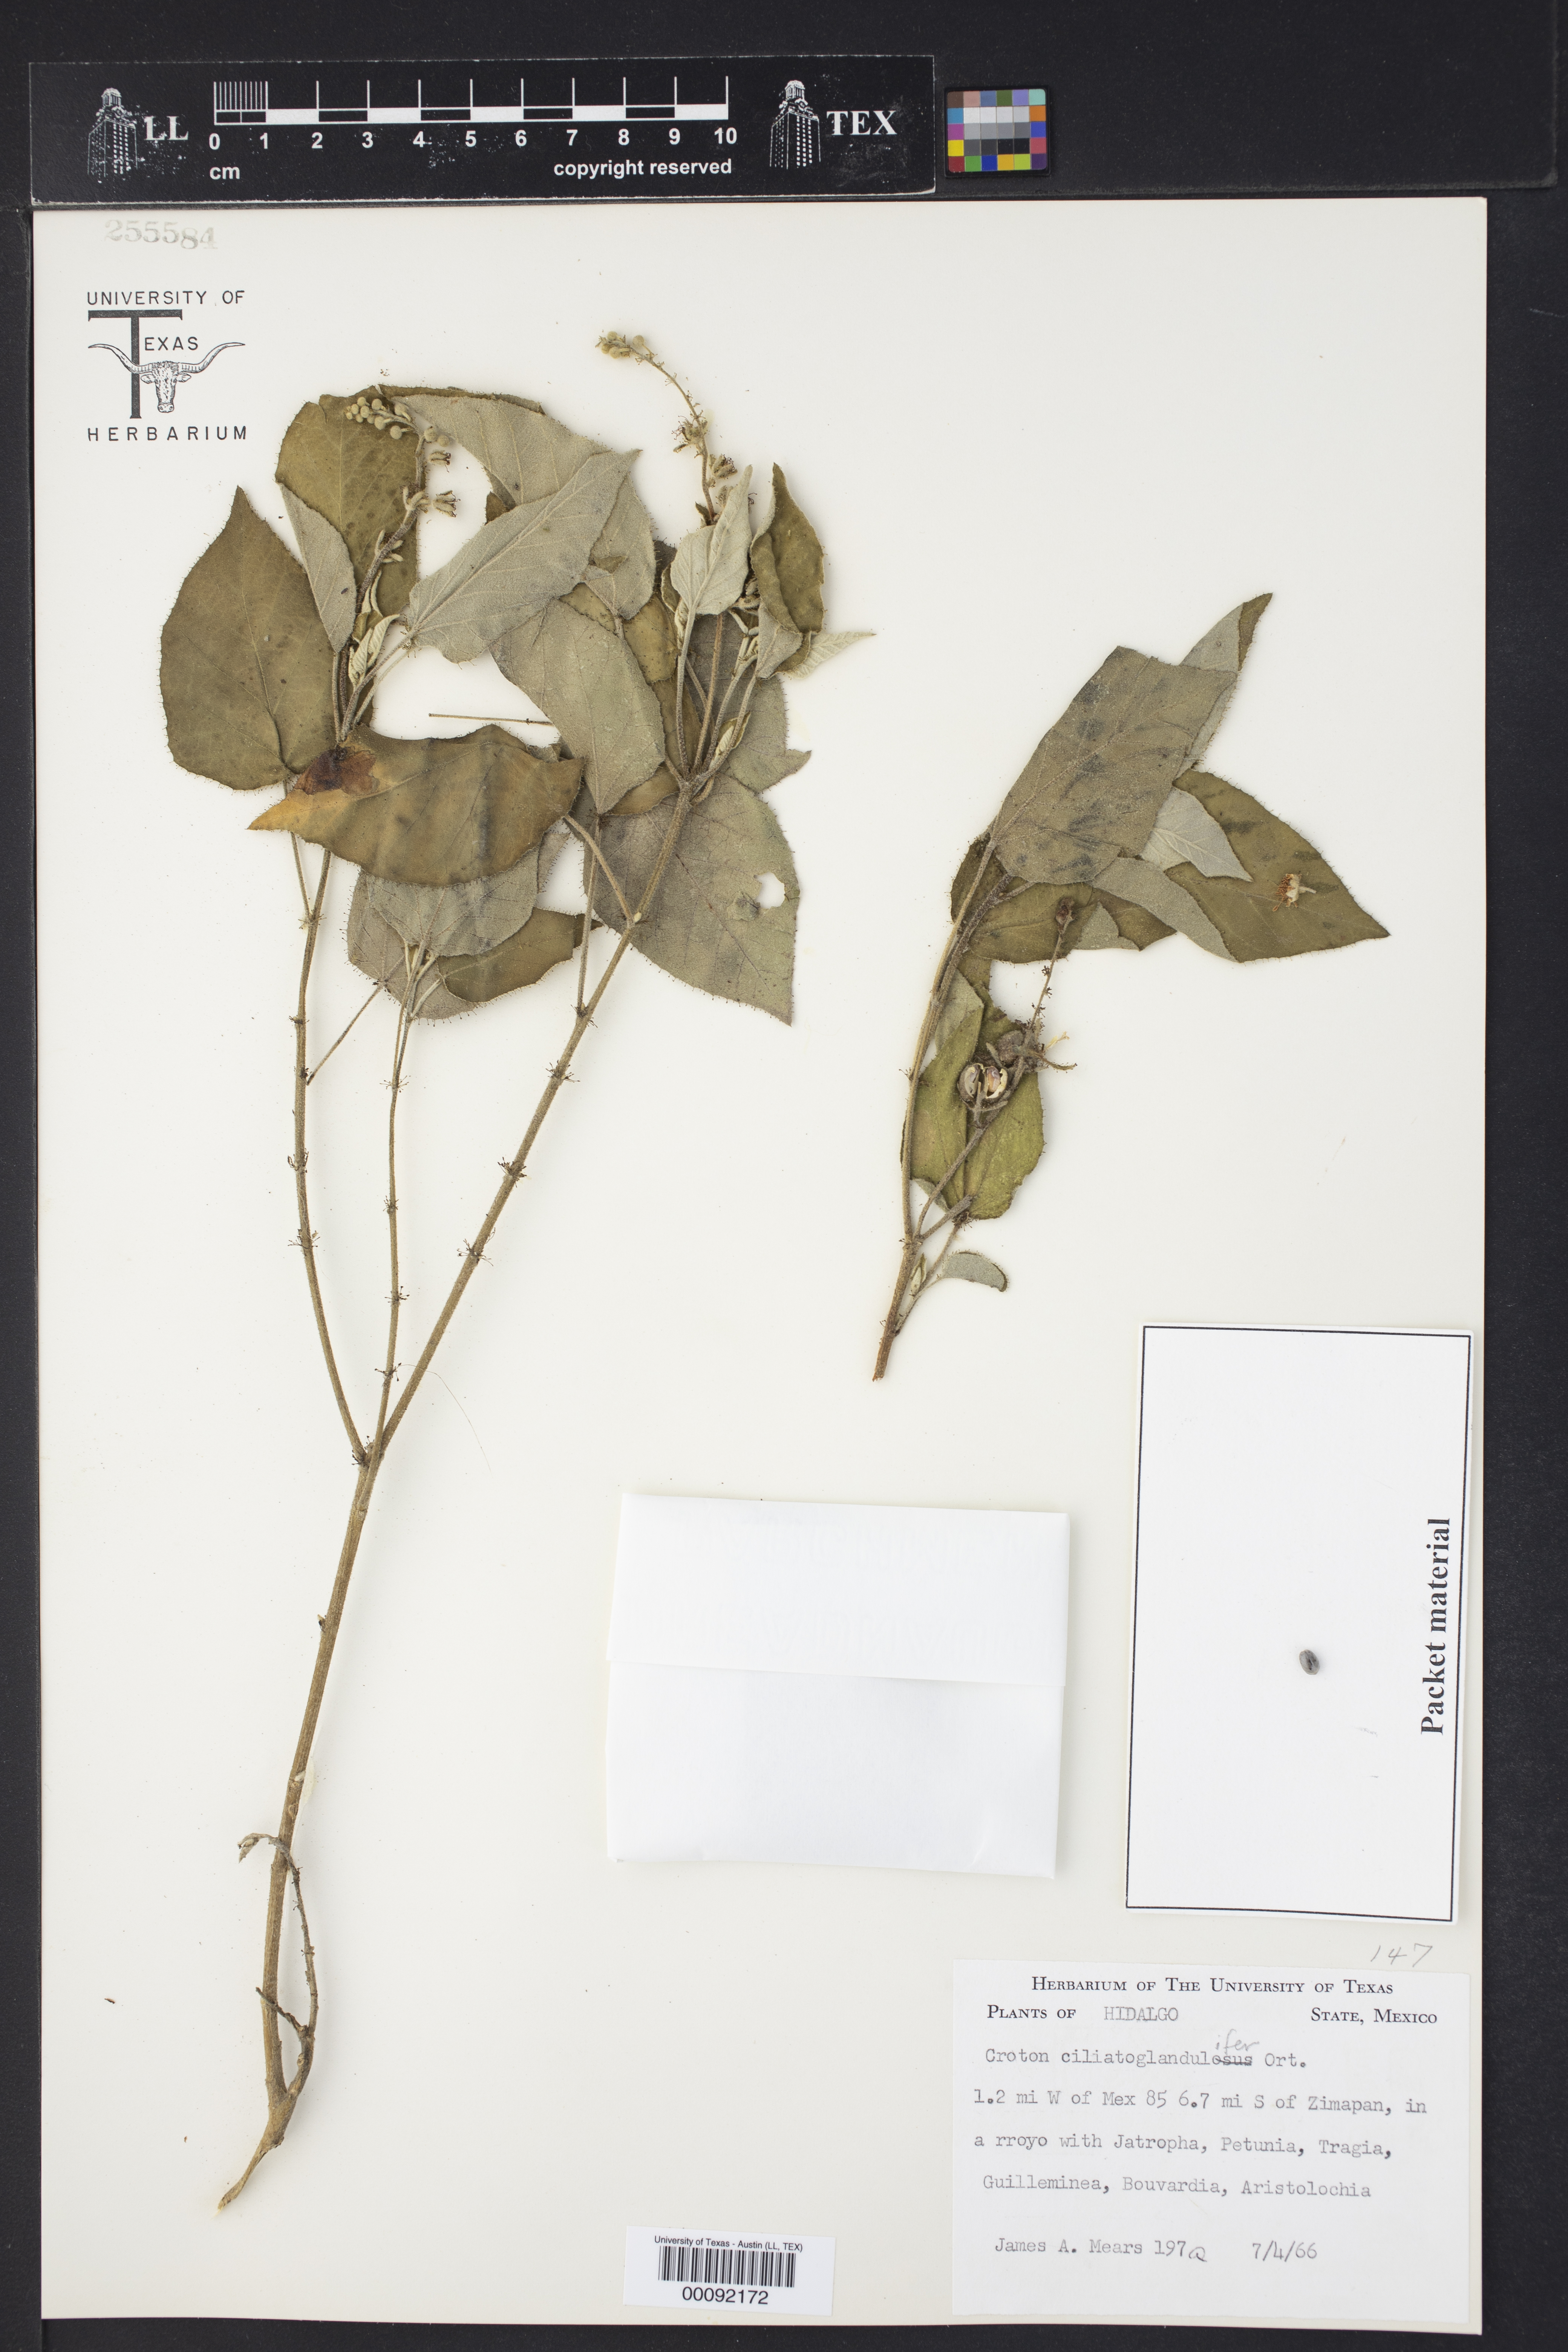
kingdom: Plantae
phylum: Tracheophyta
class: Magnoliopsida
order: Malpighiales
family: Euphorbiaceae
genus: Croton
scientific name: Croton ciliatoglandulifer
